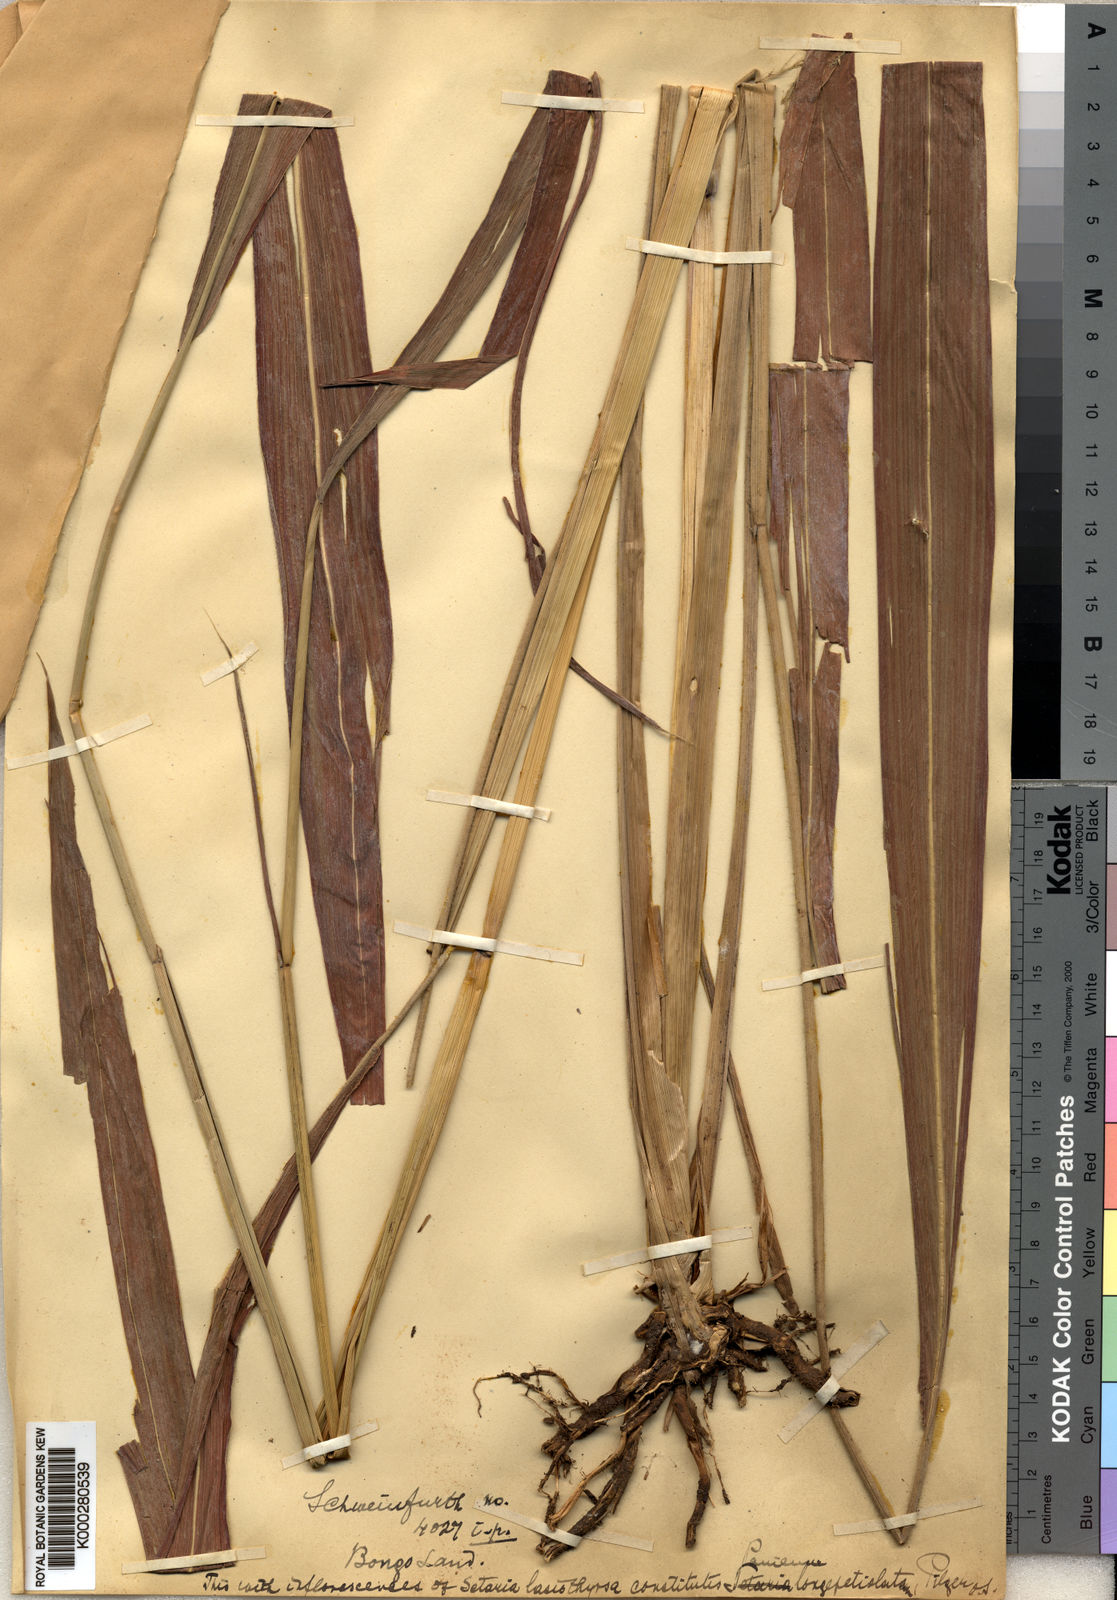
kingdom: Plantae
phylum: Tracheophyta
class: Liliopsida
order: Poales
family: Poaceae
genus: Setaria
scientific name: Setaria longiseta
